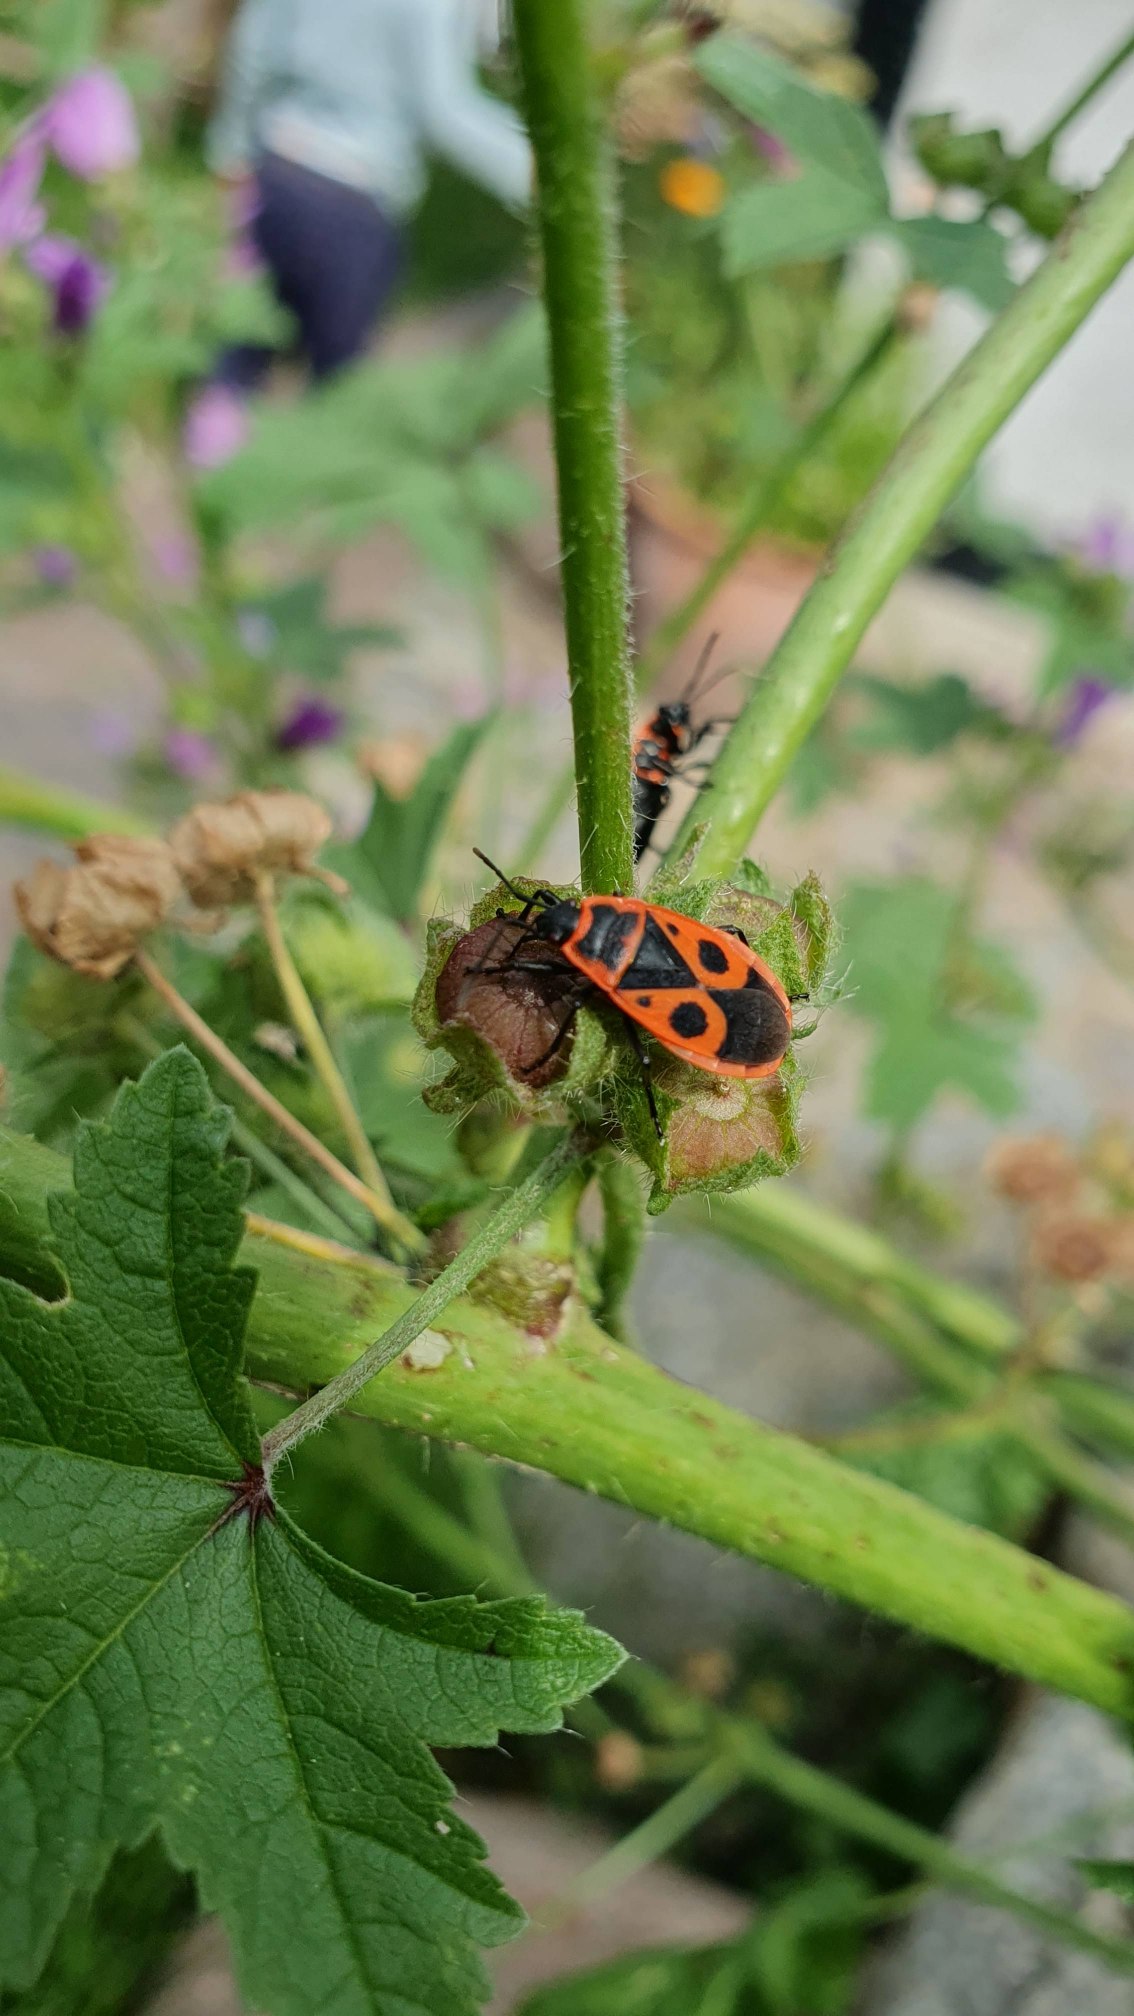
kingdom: Animalia
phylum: Arthropoda
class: Insecta
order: Hemiptera
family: Pyrrhocoridae
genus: Pyrrhocoris
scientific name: Pyrrhocoris apterus
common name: Ildtæge
